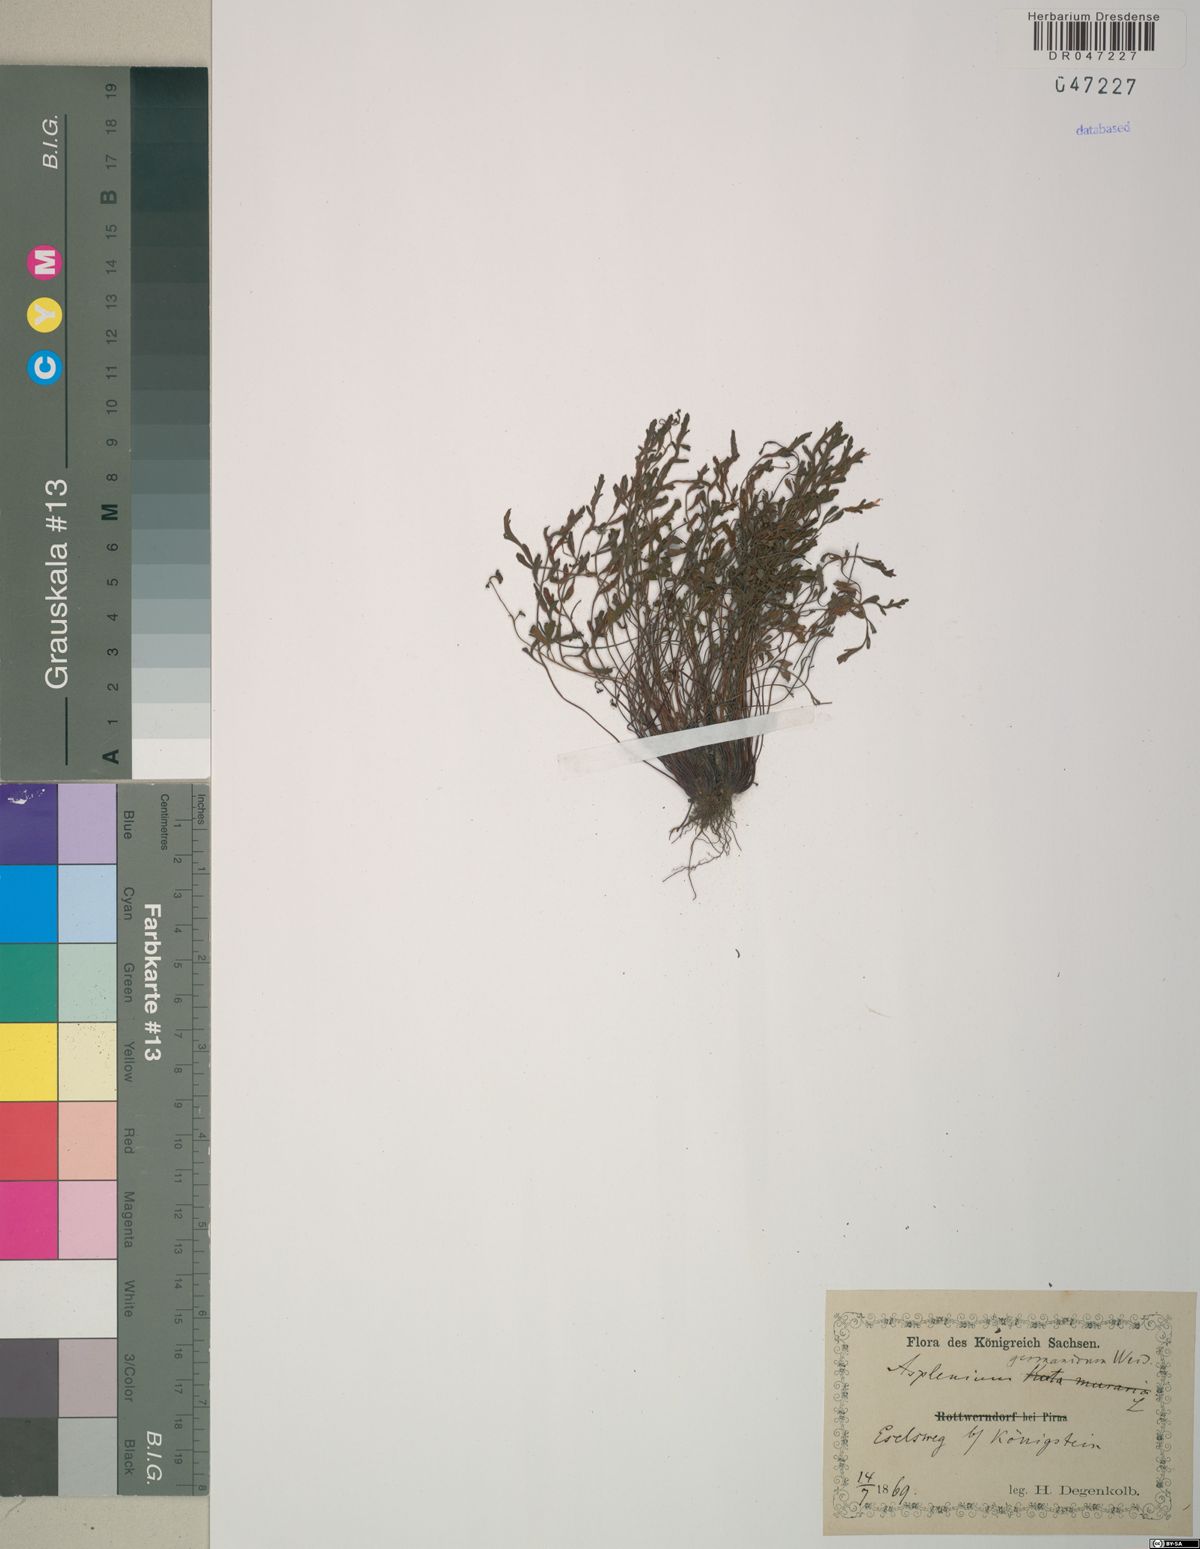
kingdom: Plantae
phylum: Tracheophyta
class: Polypodiopsida
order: Polypodiales
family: Aspleniaceae
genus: Asplenium
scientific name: Asplenium
